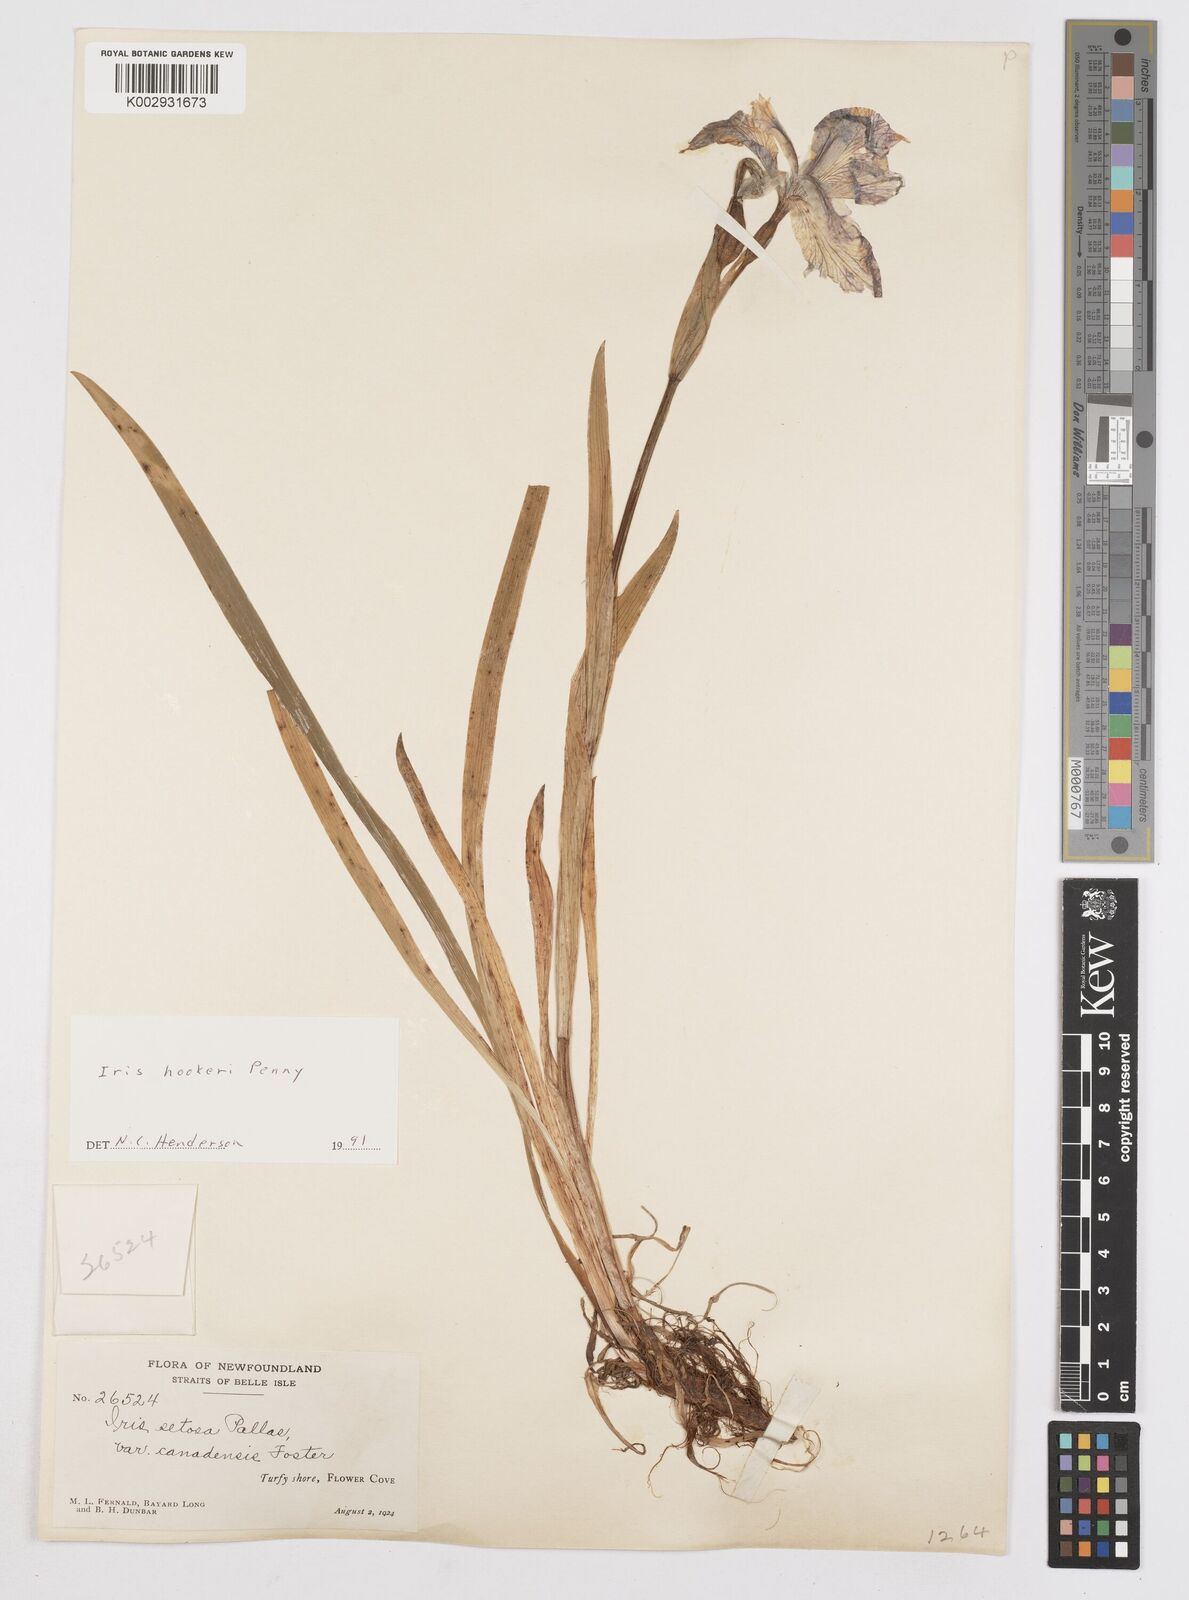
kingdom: Plantae
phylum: Tracheophyta
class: Liliopsida
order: Asparagales
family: Iridaceae
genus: Iris
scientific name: Iris setosa
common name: Arctic blue flag
